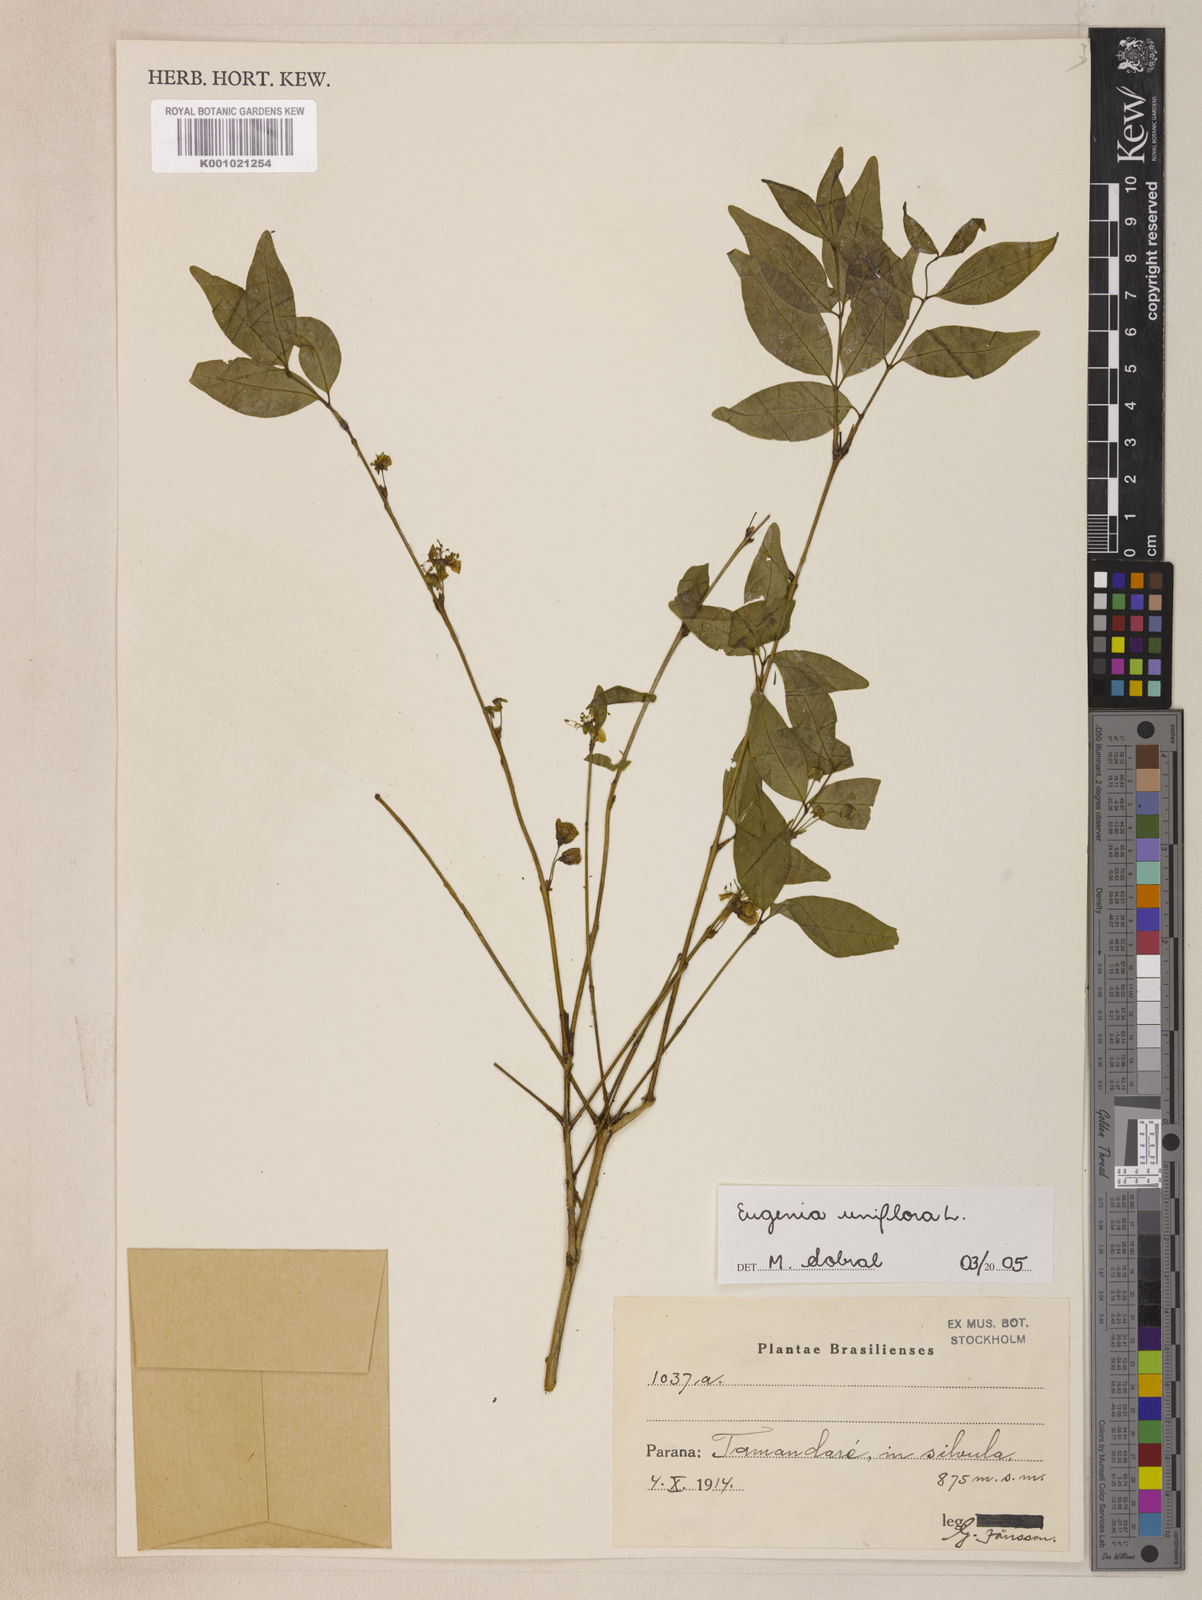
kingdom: Plantae
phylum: Tracheophyta
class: Magnoliopsida
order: Myrtales
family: Myrtaceae
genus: Eugenia
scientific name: Eugenia uniflora
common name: Surinam cherry
